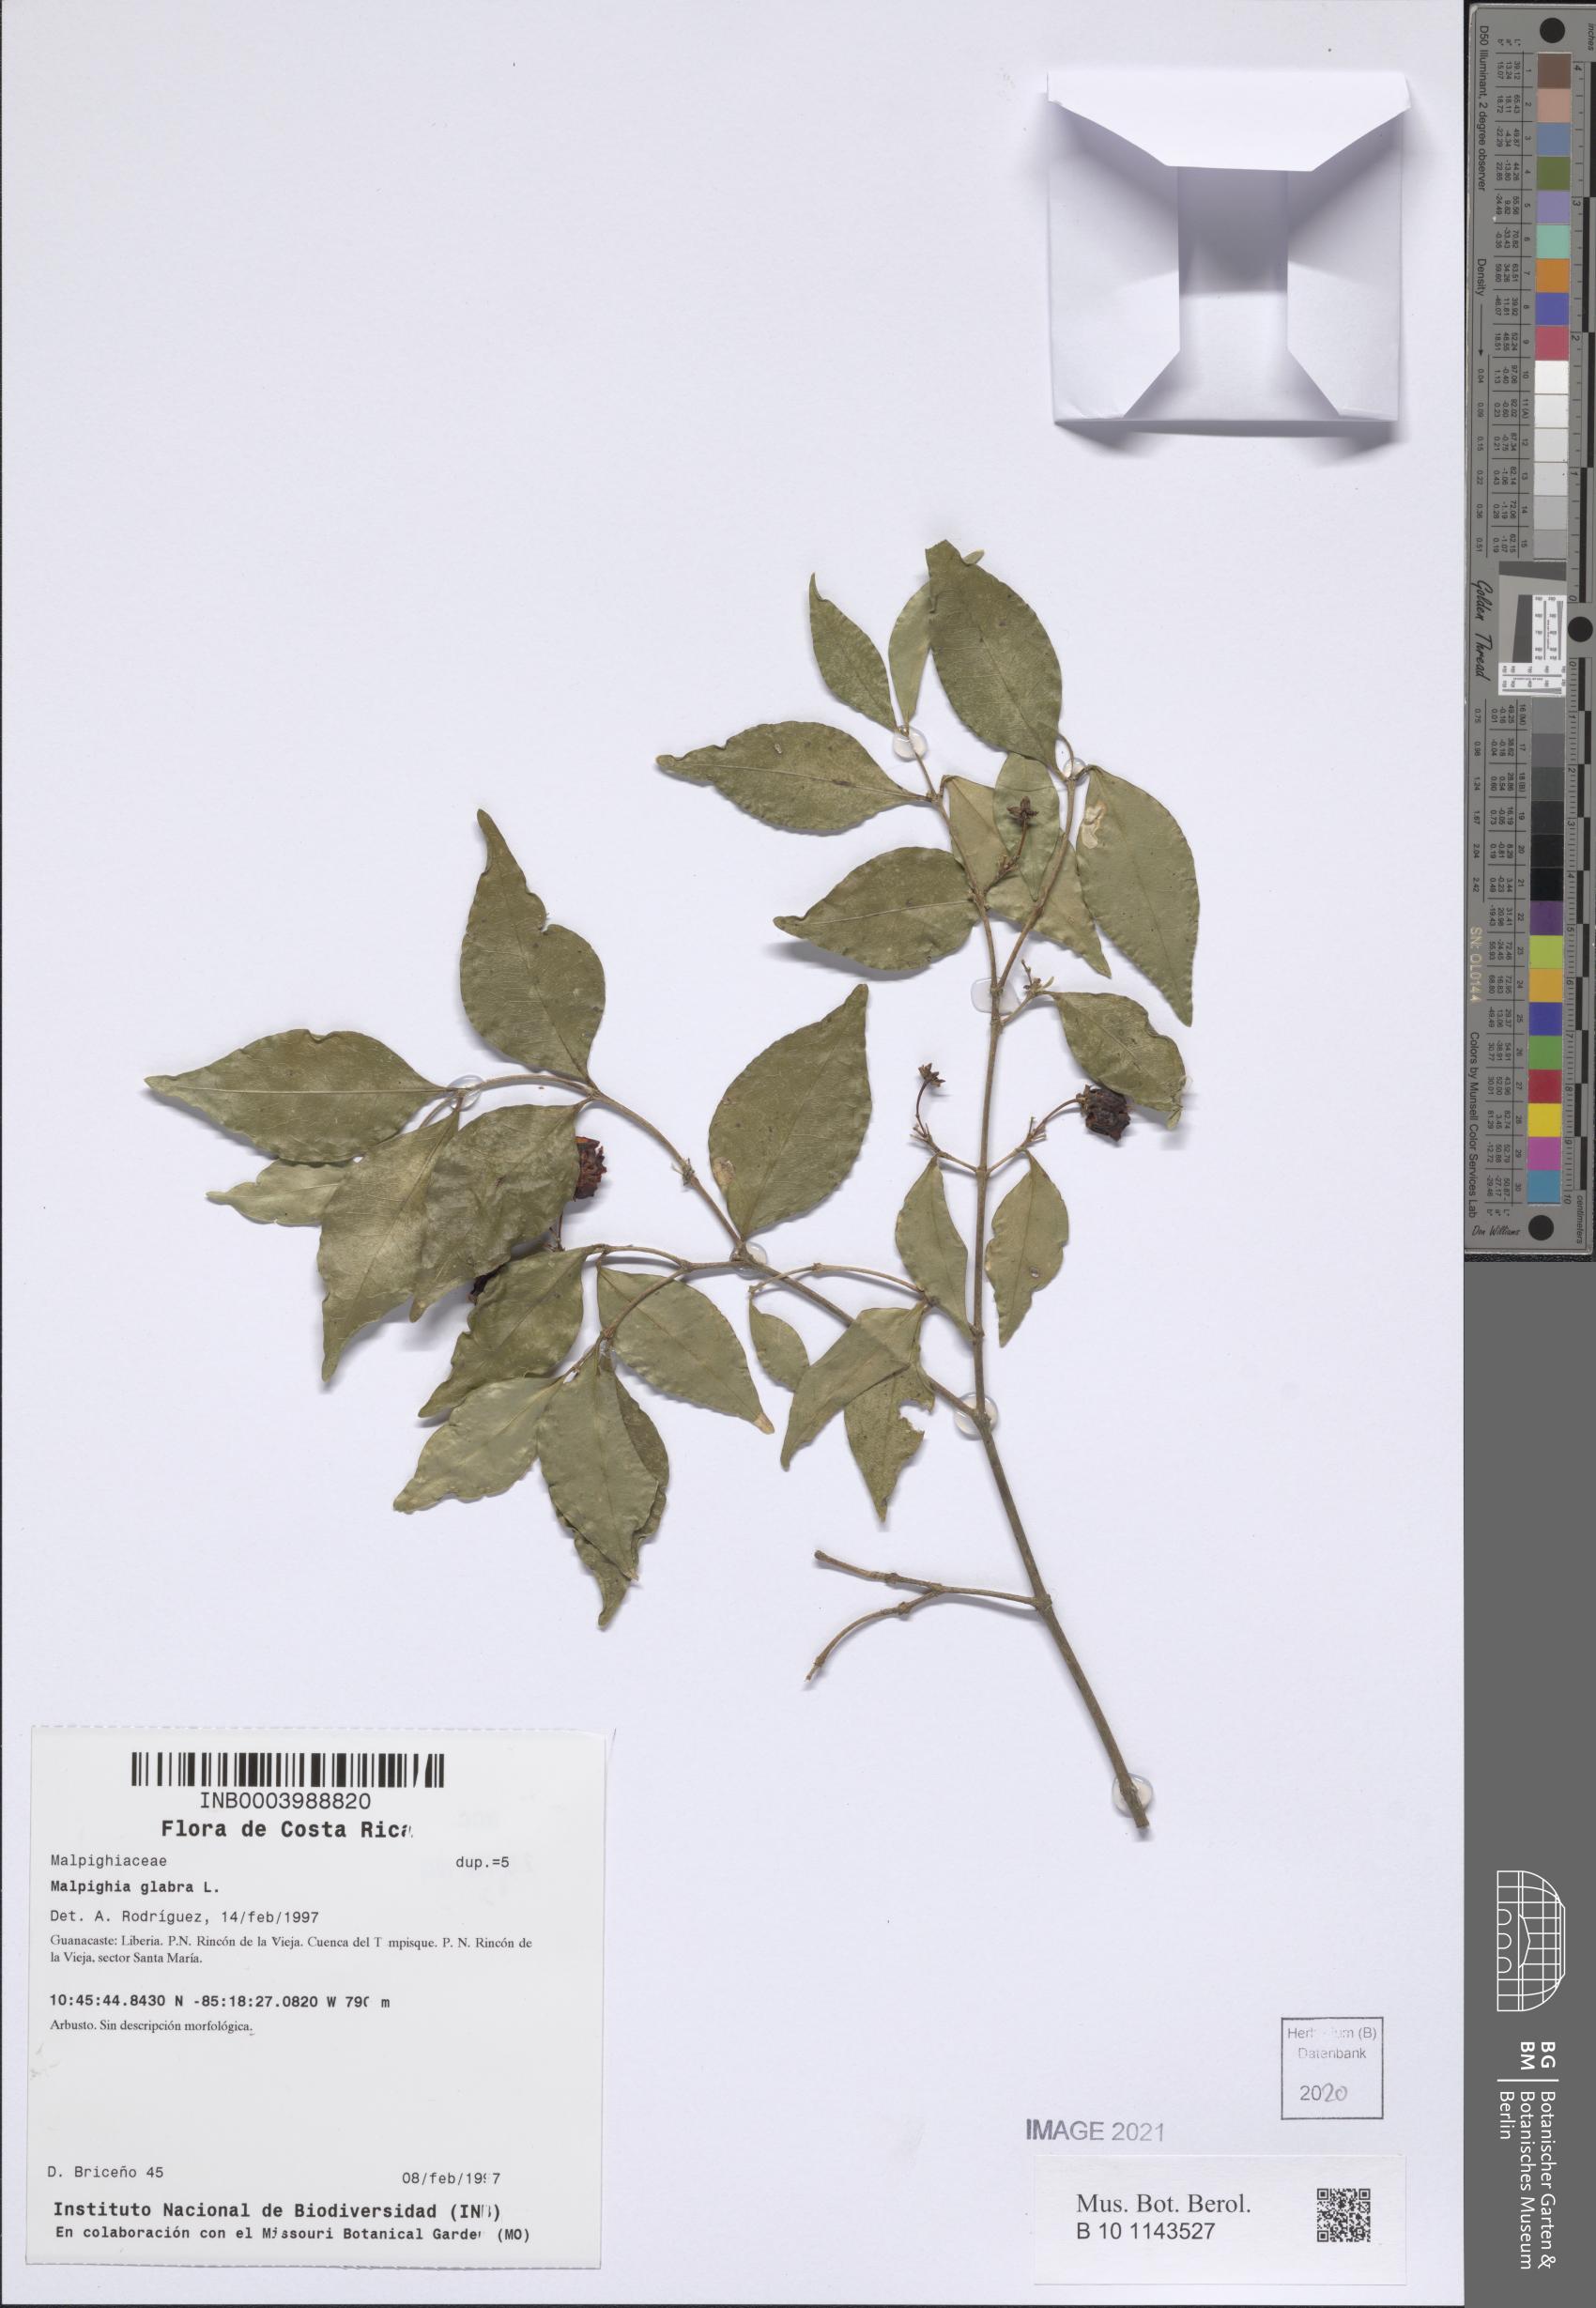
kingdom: Plantae
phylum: Tracheophyta
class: Magnoliopsida
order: Malpighiales
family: Malpighiaceae
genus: Malpighia
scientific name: Malpighia glabra
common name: Barbados cherry
